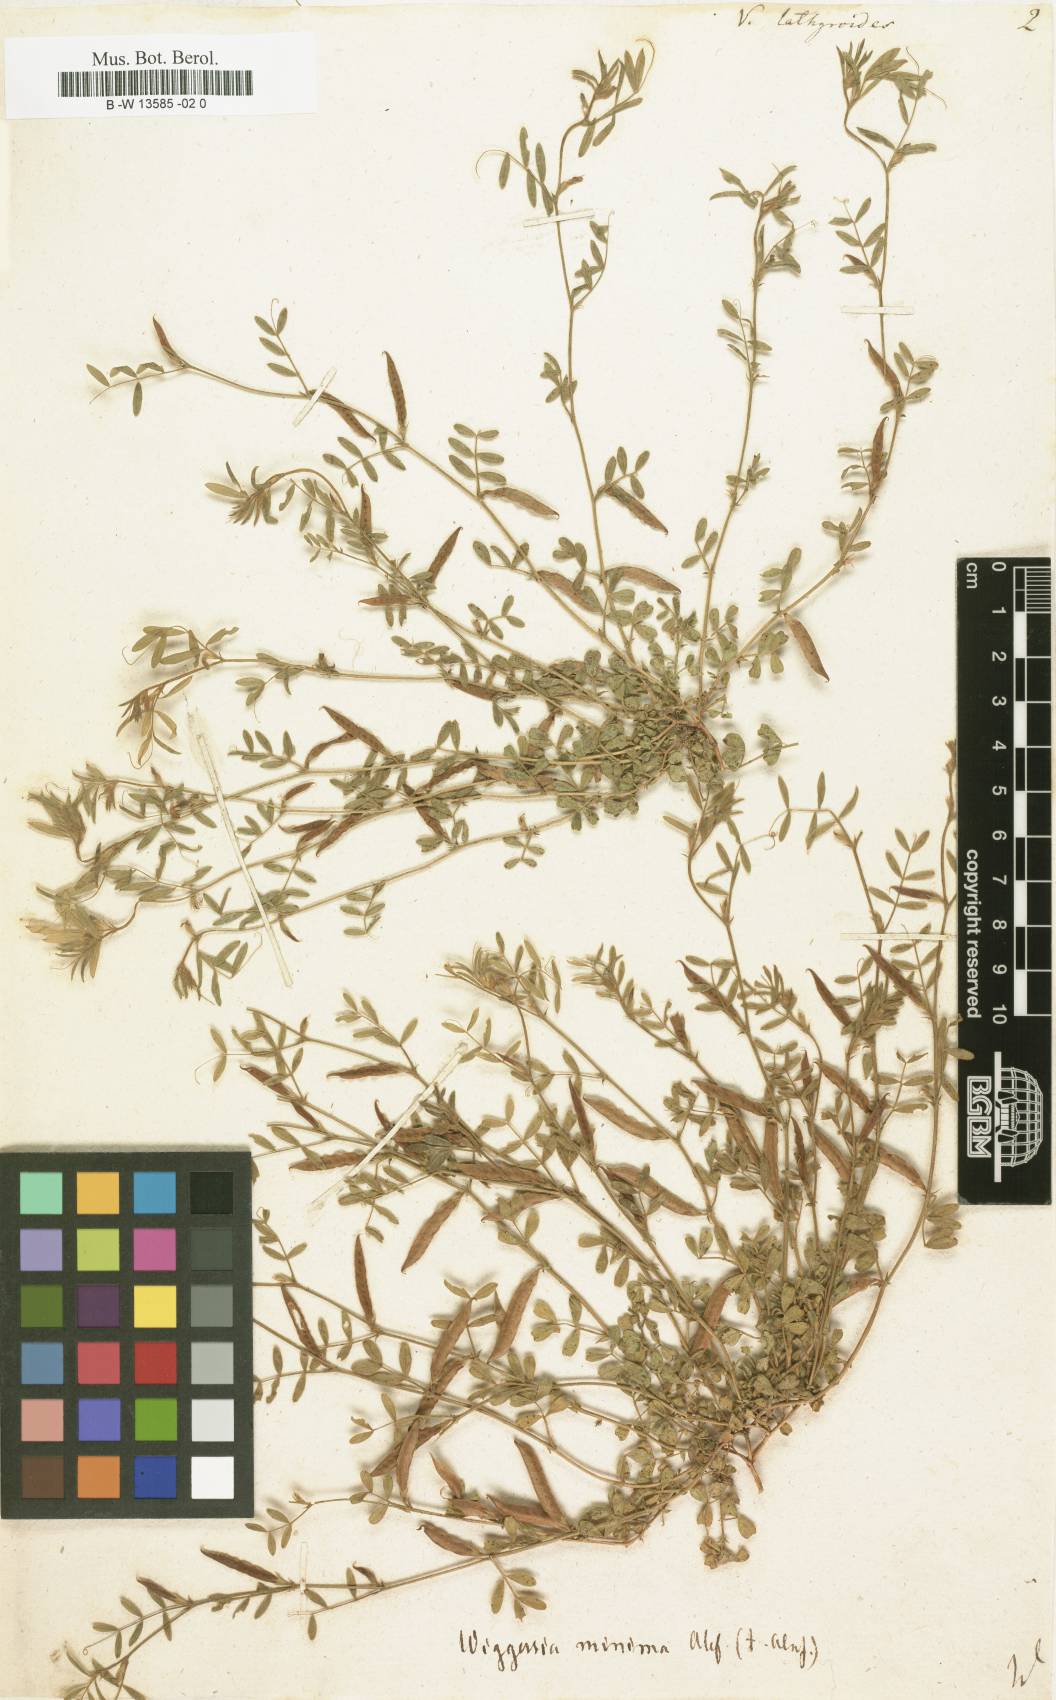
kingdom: Plantae
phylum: Tracheophyta
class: Magnoliopsida
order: Fabales
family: Fabaceae
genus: Vicia
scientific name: Vicia lathyroides
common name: Spring vetch
